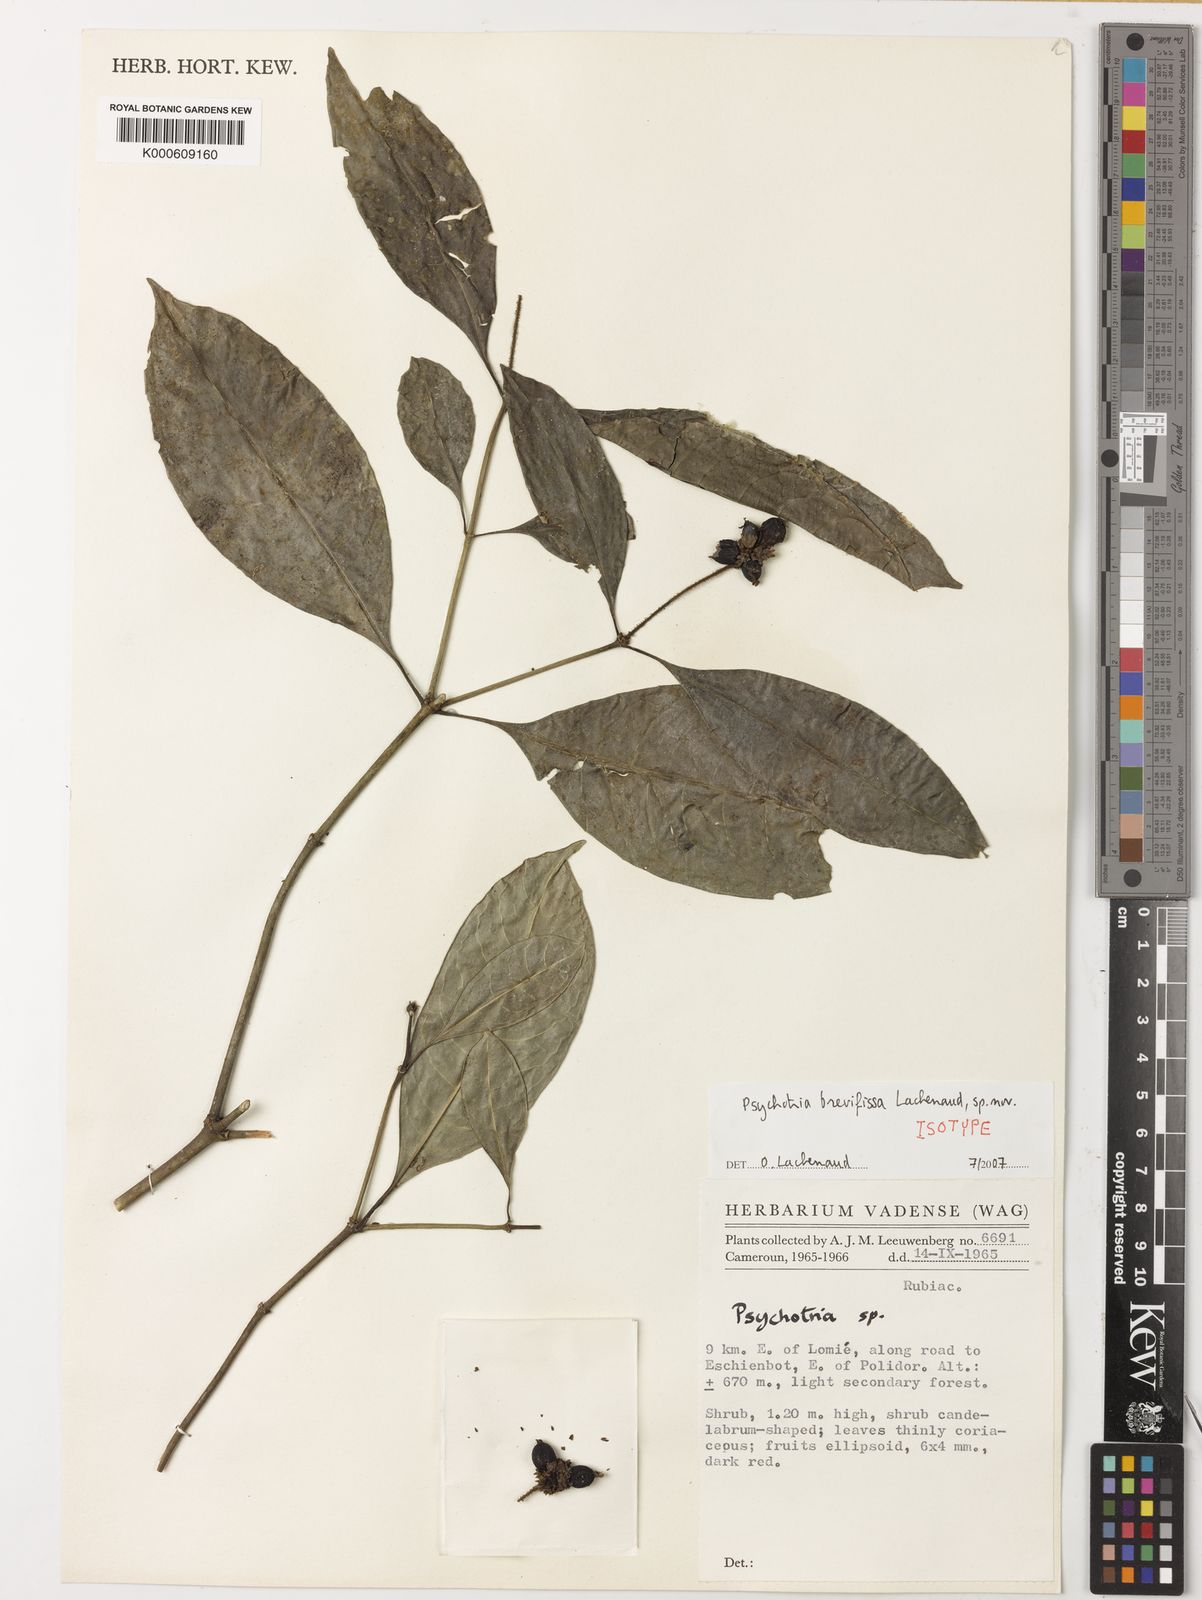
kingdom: Plantae
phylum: Tracheophyta
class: Magnoliopsida
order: Gentianales
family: Rubiaceae
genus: Psychotria
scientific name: Psychotria brevifissa
